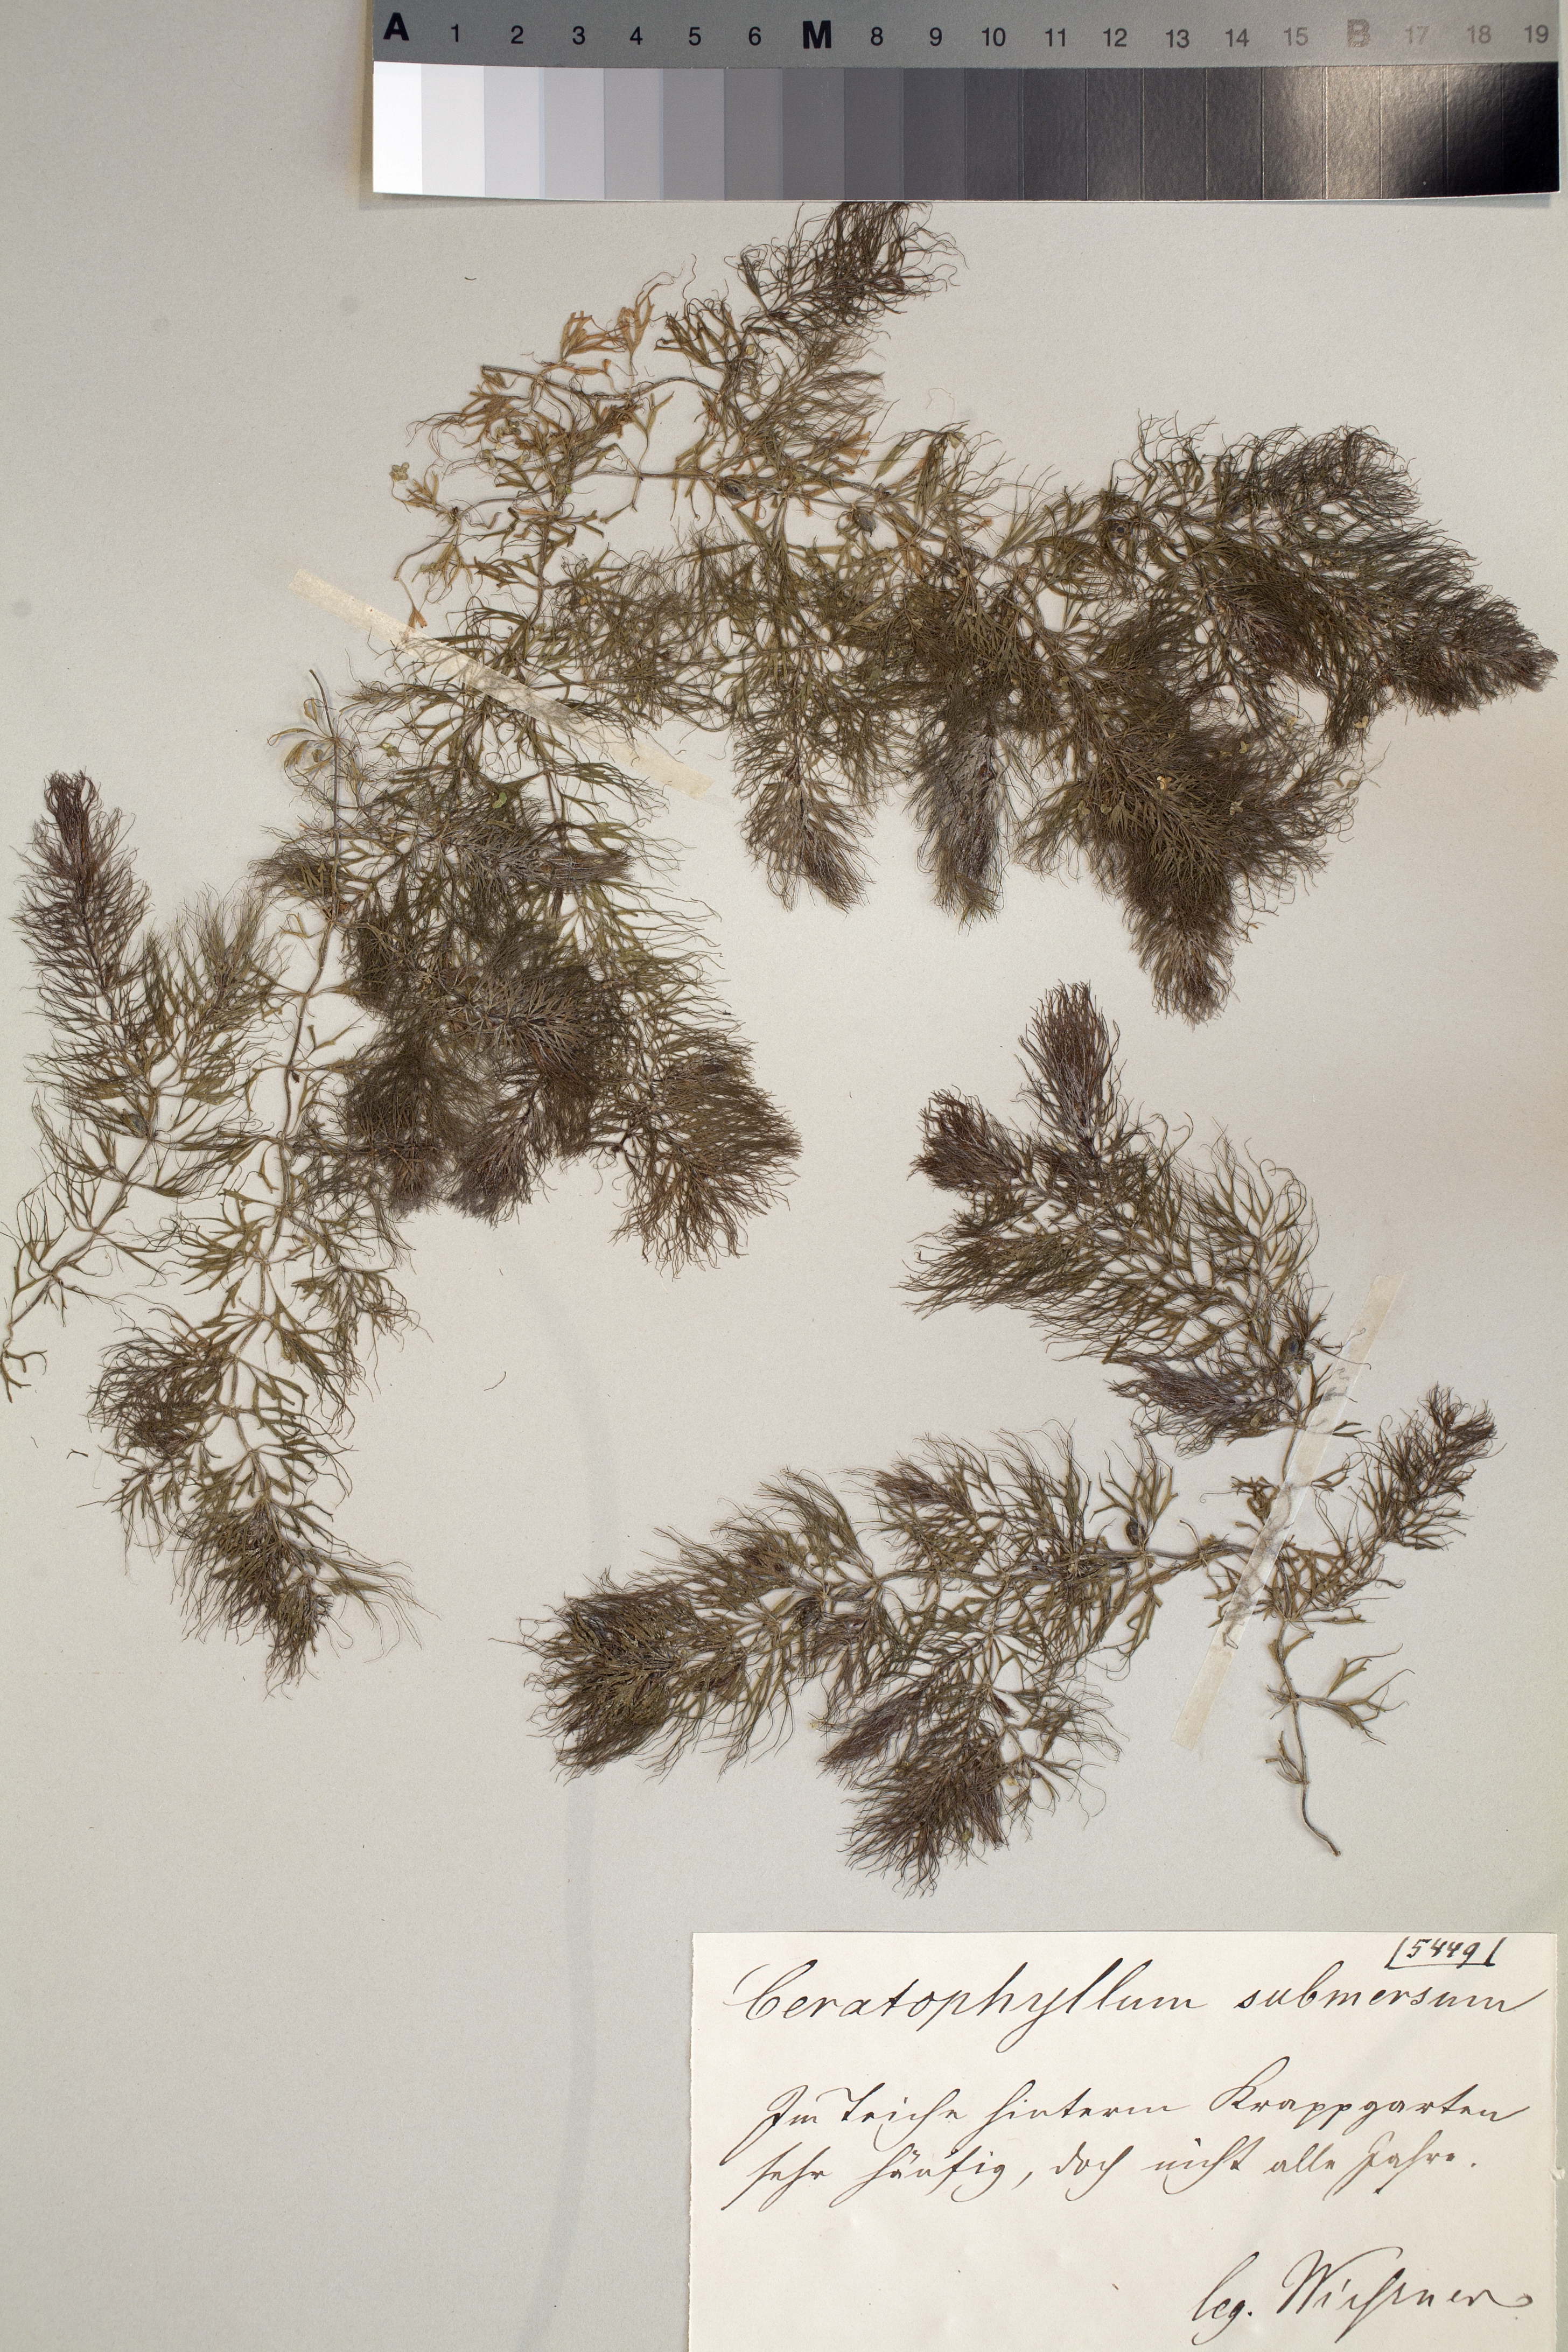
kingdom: Plantae
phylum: Tracheophyta
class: Magnoliopsida
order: Ceratophyllales
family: Ceratophyllaceae
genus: Ceratophyllum
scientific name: Ceratophyllum submersum
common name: Soft hornwort
